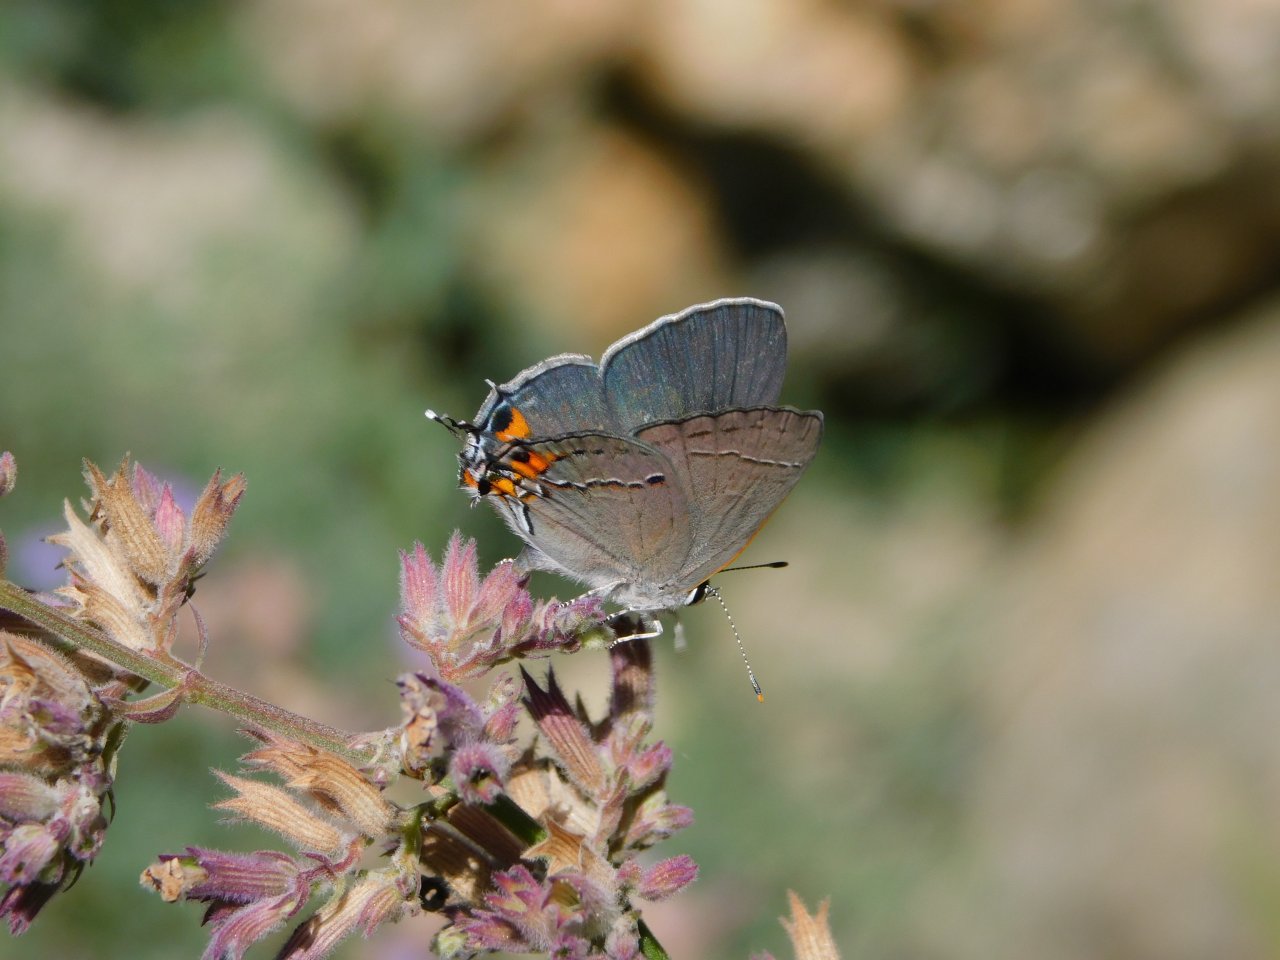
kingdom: Animalia
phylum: Arthropoda
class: Insecta
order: Lepidoptera
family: Lycaenidae
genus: Strymon
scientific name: Strymon melinus
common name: Gray Hairstreak
